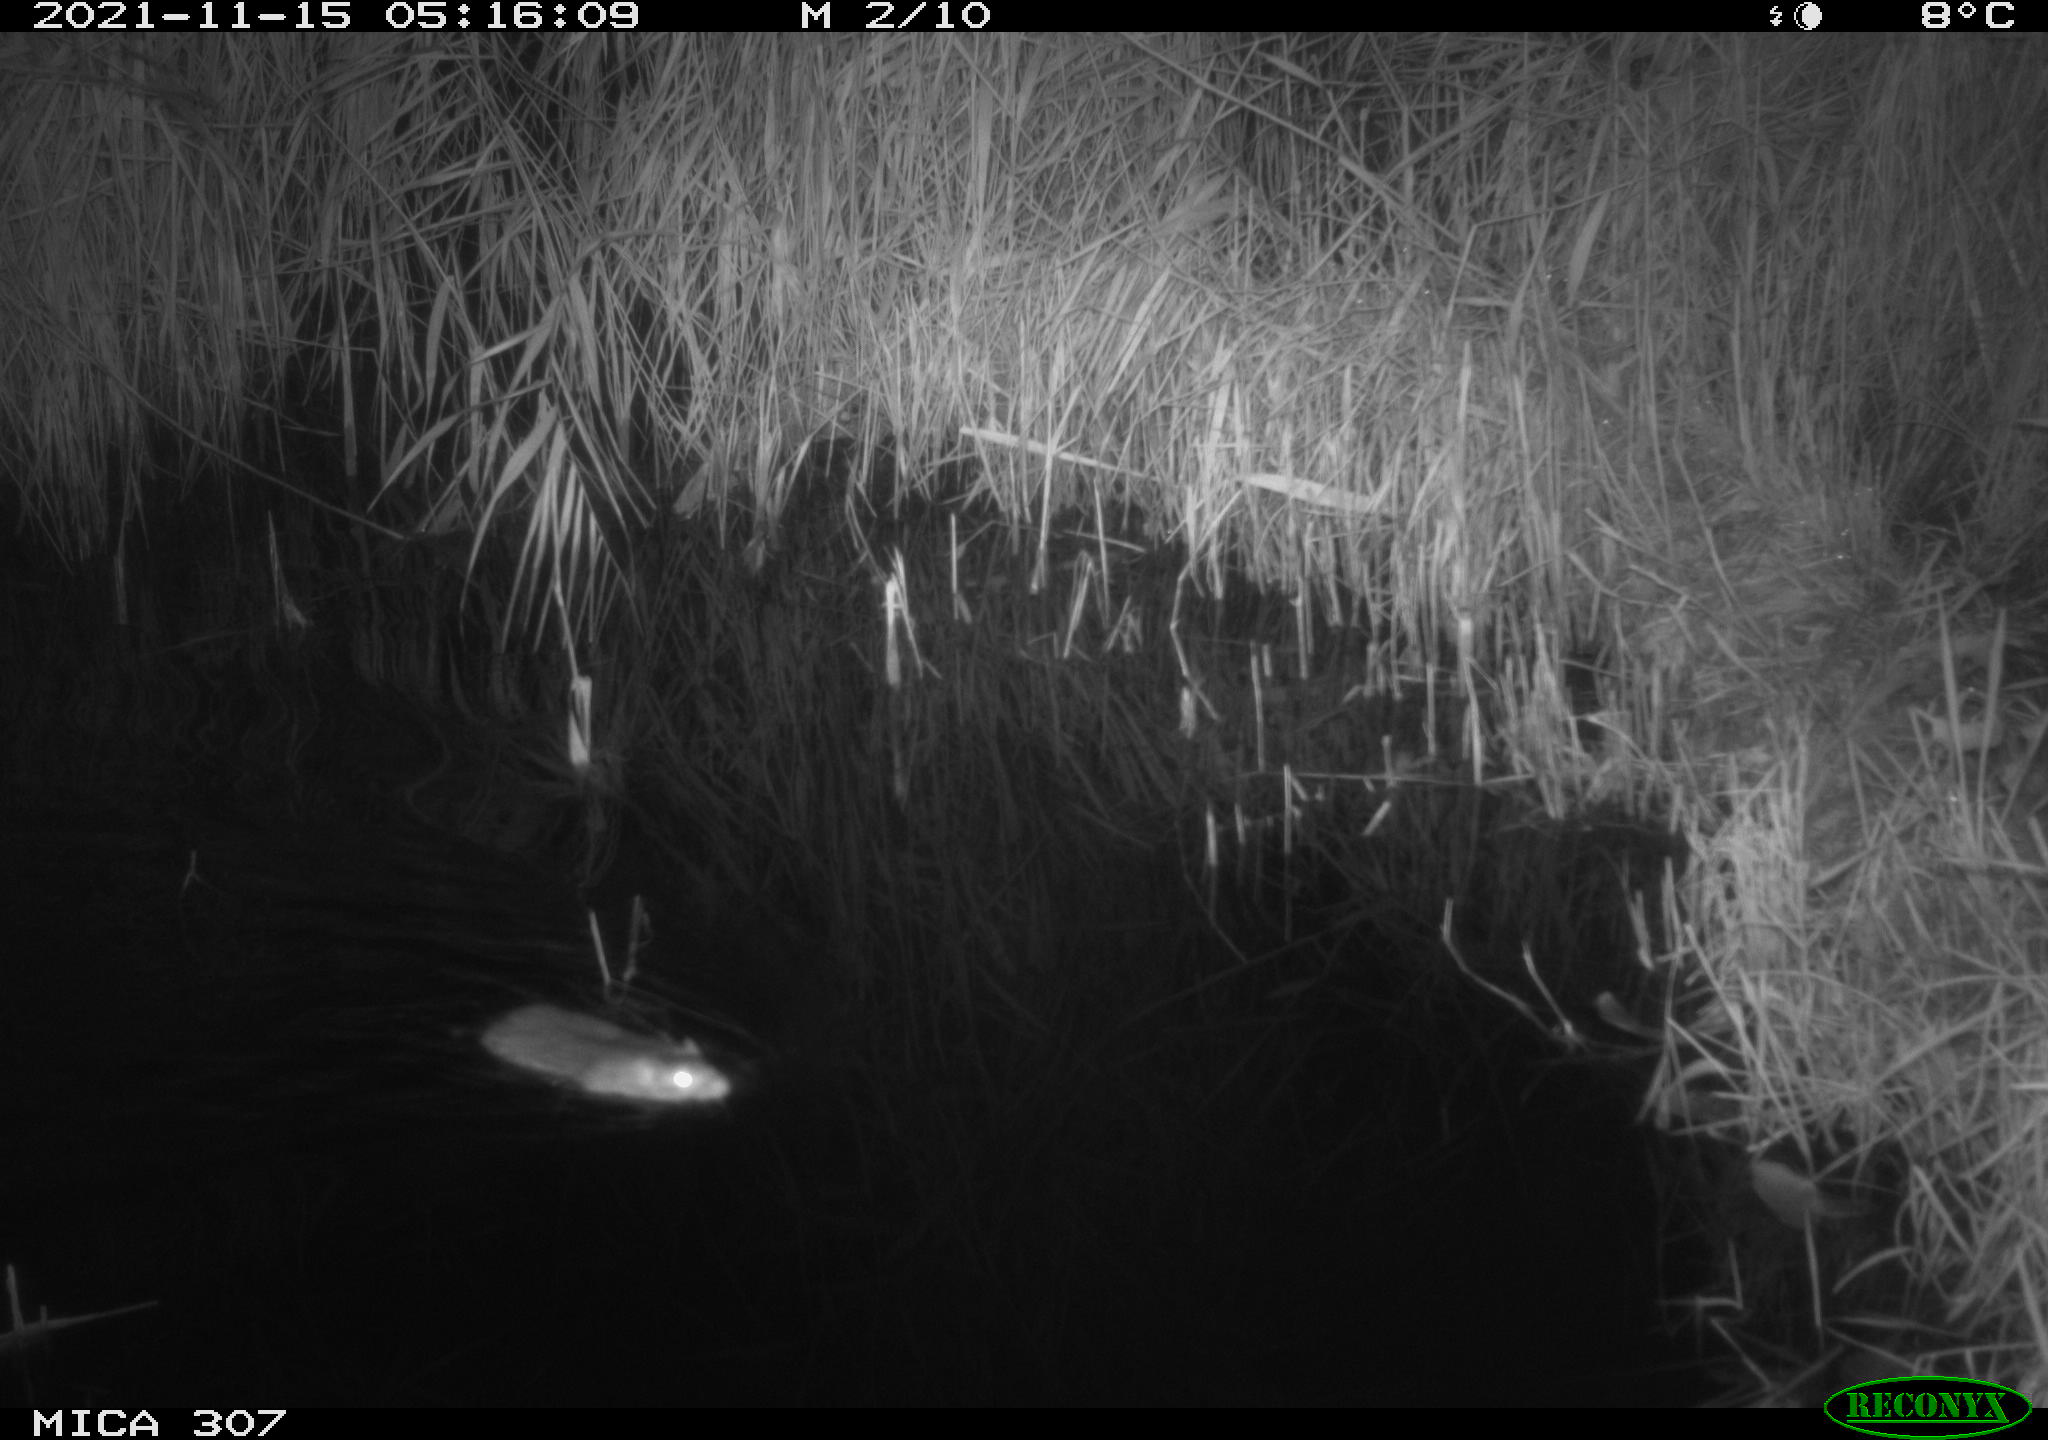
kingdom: Animalia
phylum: Chordata
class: Mammalia
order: Rodentia
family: Muridae
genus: Rattus
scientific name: Rattus norvegicus
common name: Brown rat
